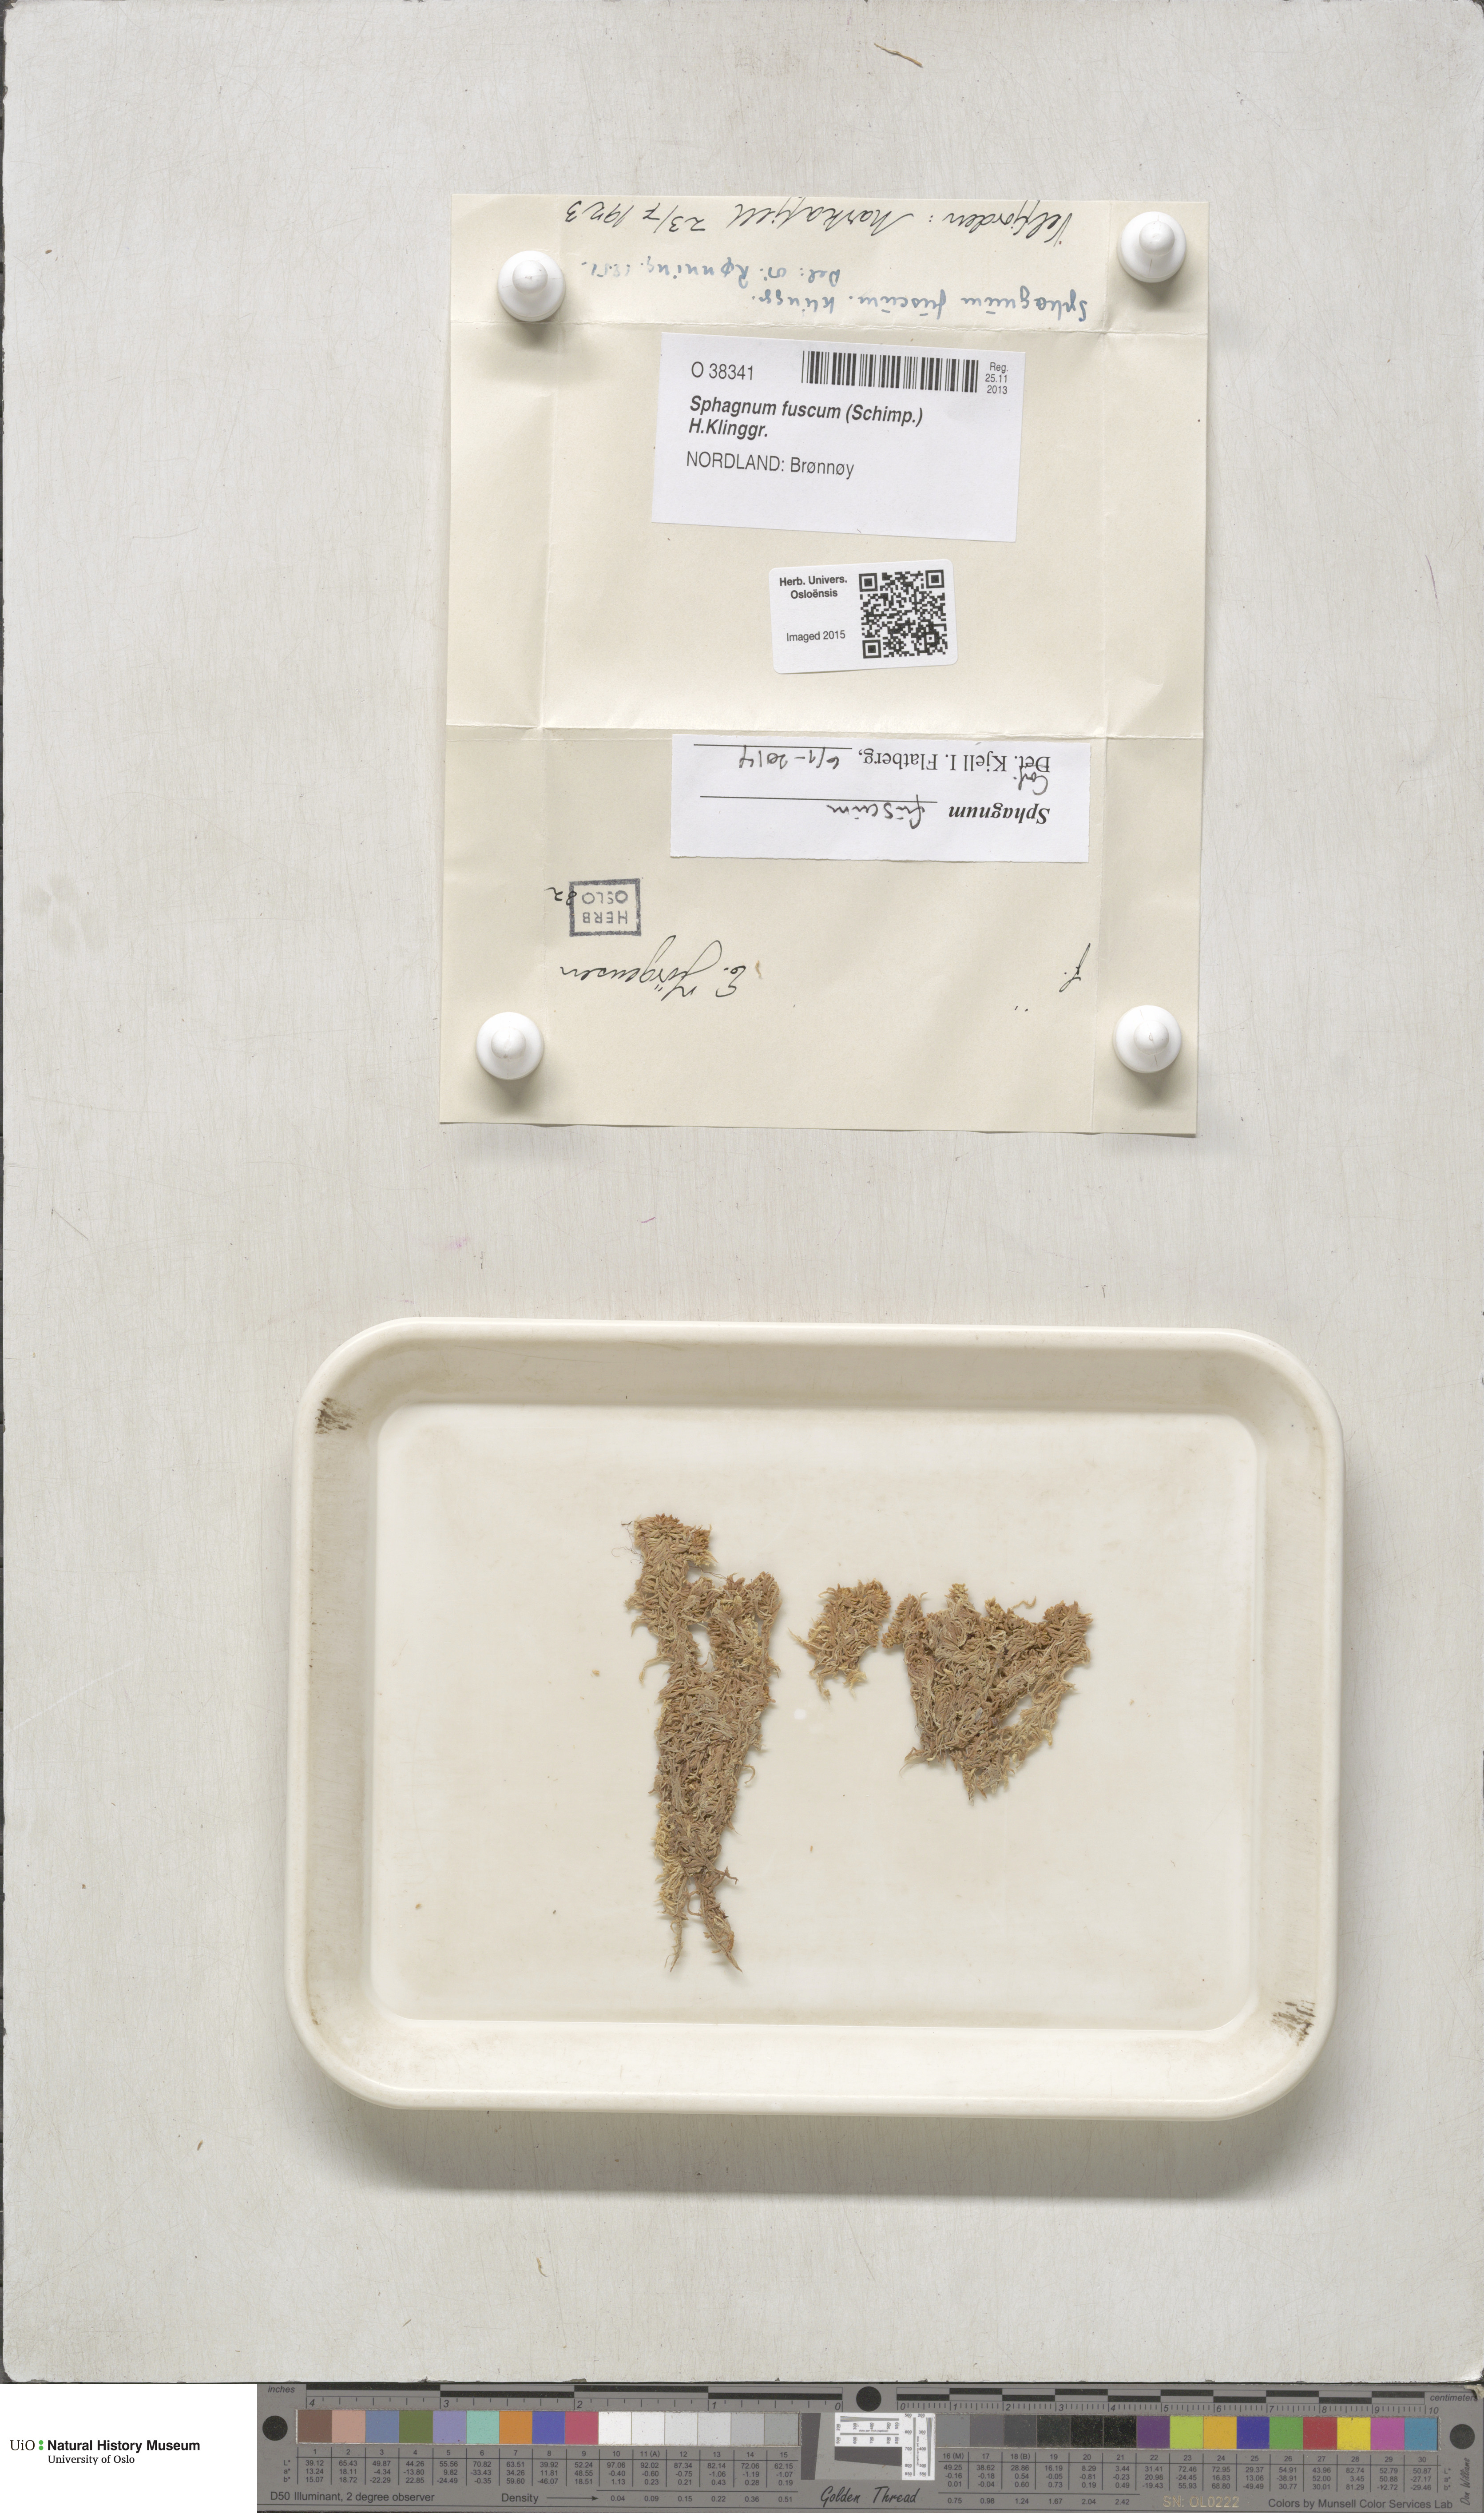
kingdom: Plantae
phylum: Bryophyta
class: Sphagnopsida
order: Sphagnales
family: Sphagnaceae
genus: Sphagnum
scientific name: Sphagnum fuscum
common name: Brown peat moss
